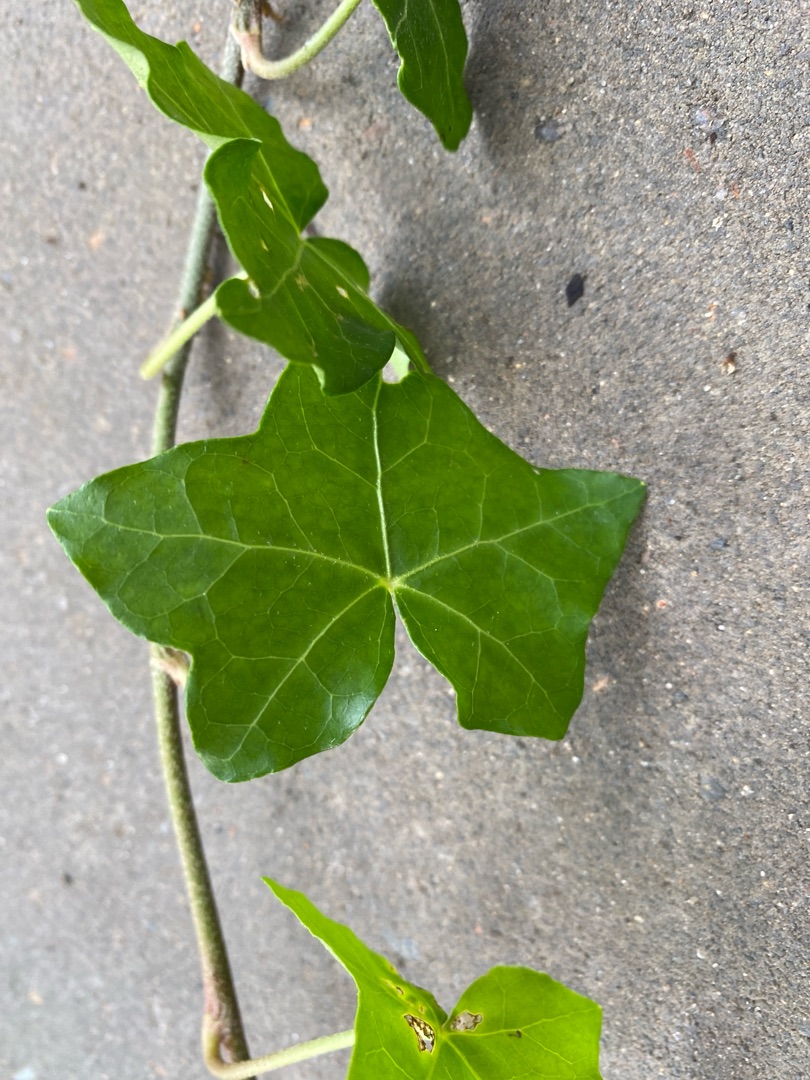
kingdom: Plantae
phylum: Tracheophyta
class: Magnoliopsida
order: Apiales
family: Araliaceae
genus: Hedera
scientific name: Hedera hibernica
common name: Irsk vedbend
